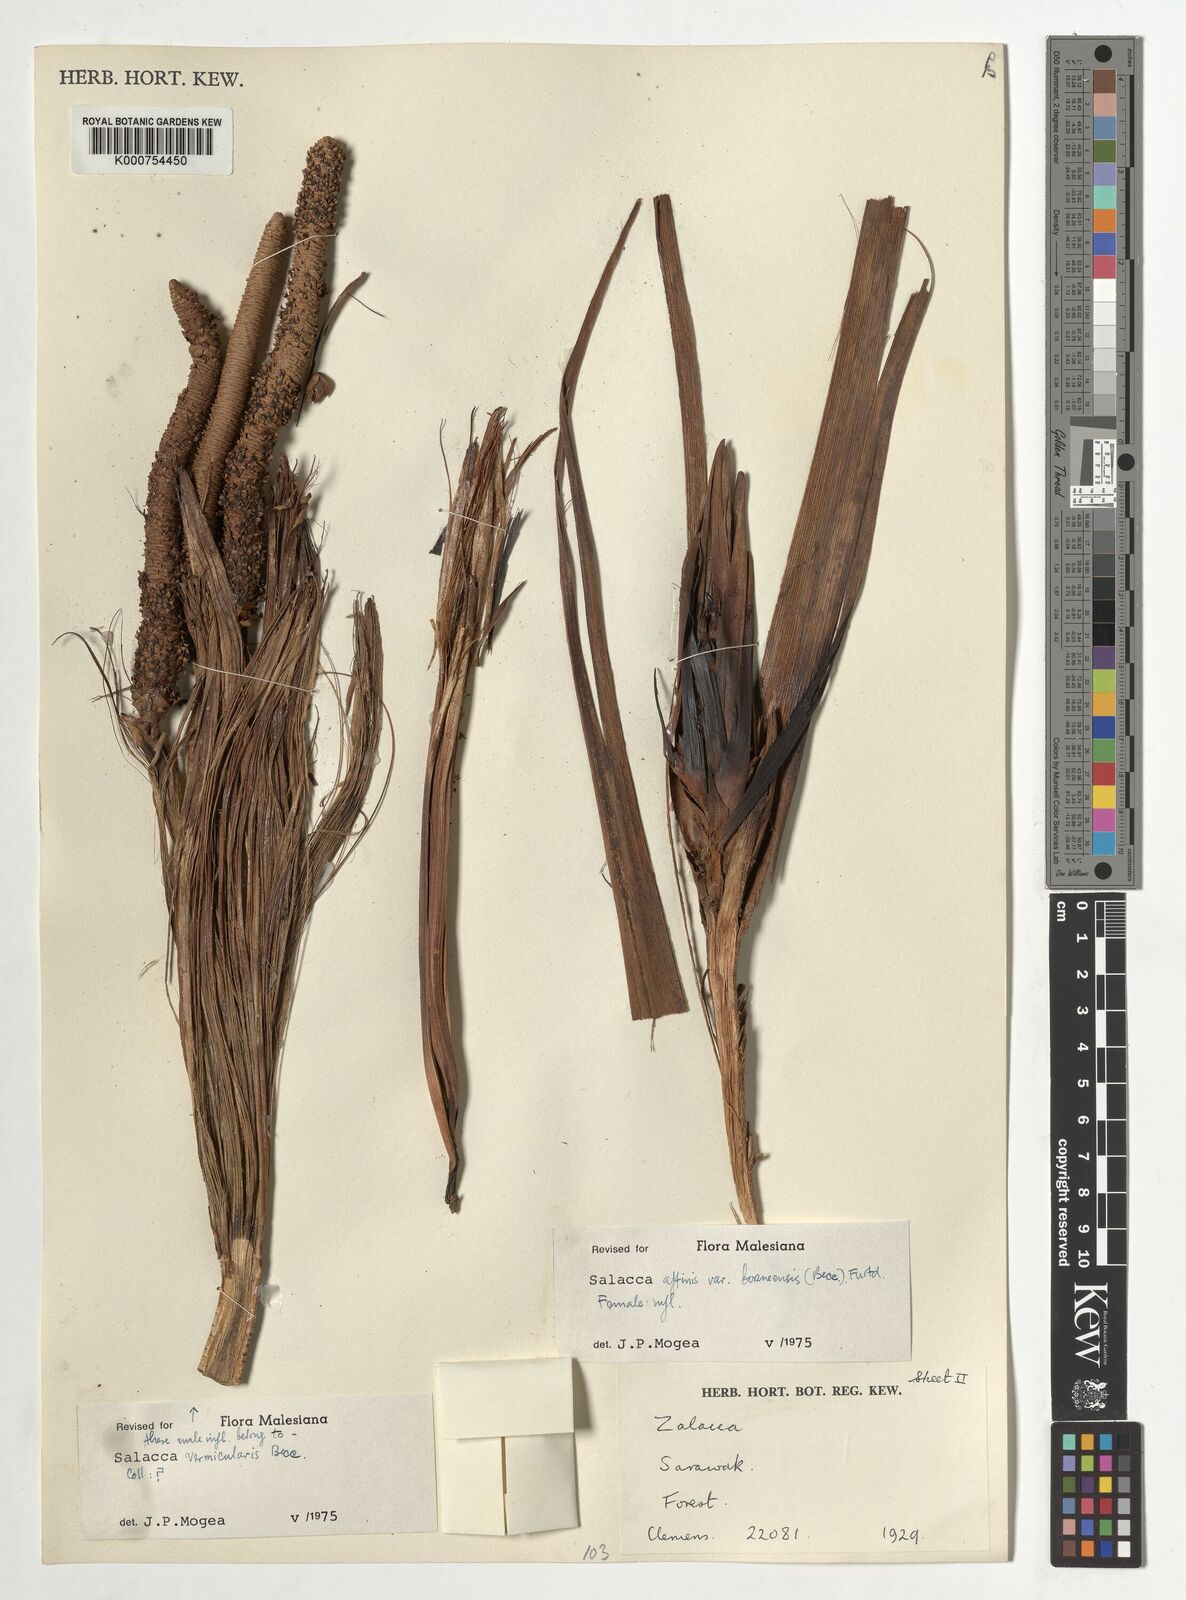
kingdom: Plantae
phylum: Tracheophyta
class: Liliopsida
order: Arecales
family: Arecaceae
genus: Salacca
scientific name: Salacca affinis
